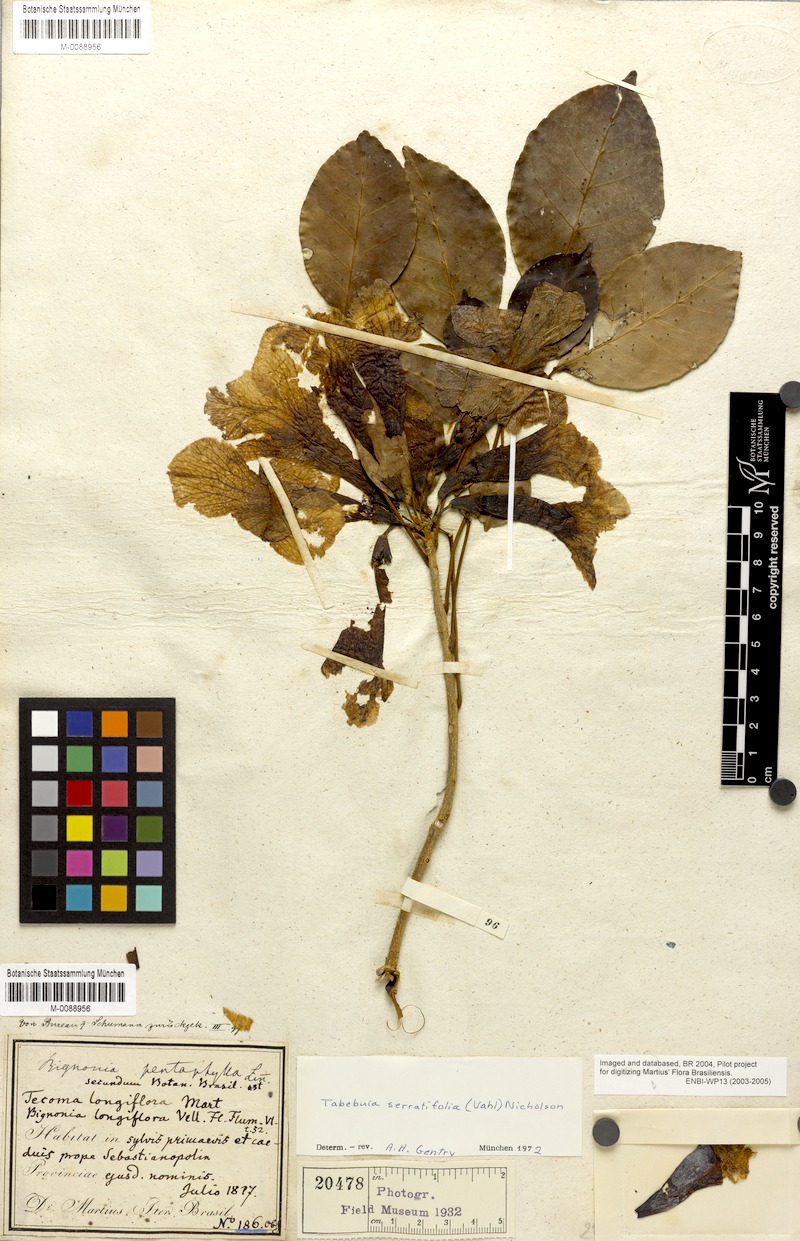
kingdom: Plantae
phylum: Tracheophyta
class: Magnoliopsida
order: Lamiales
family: Bignoniaceae
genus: Handroanthus
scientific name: Handroanthus serratifolius
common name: Yellow ipe
